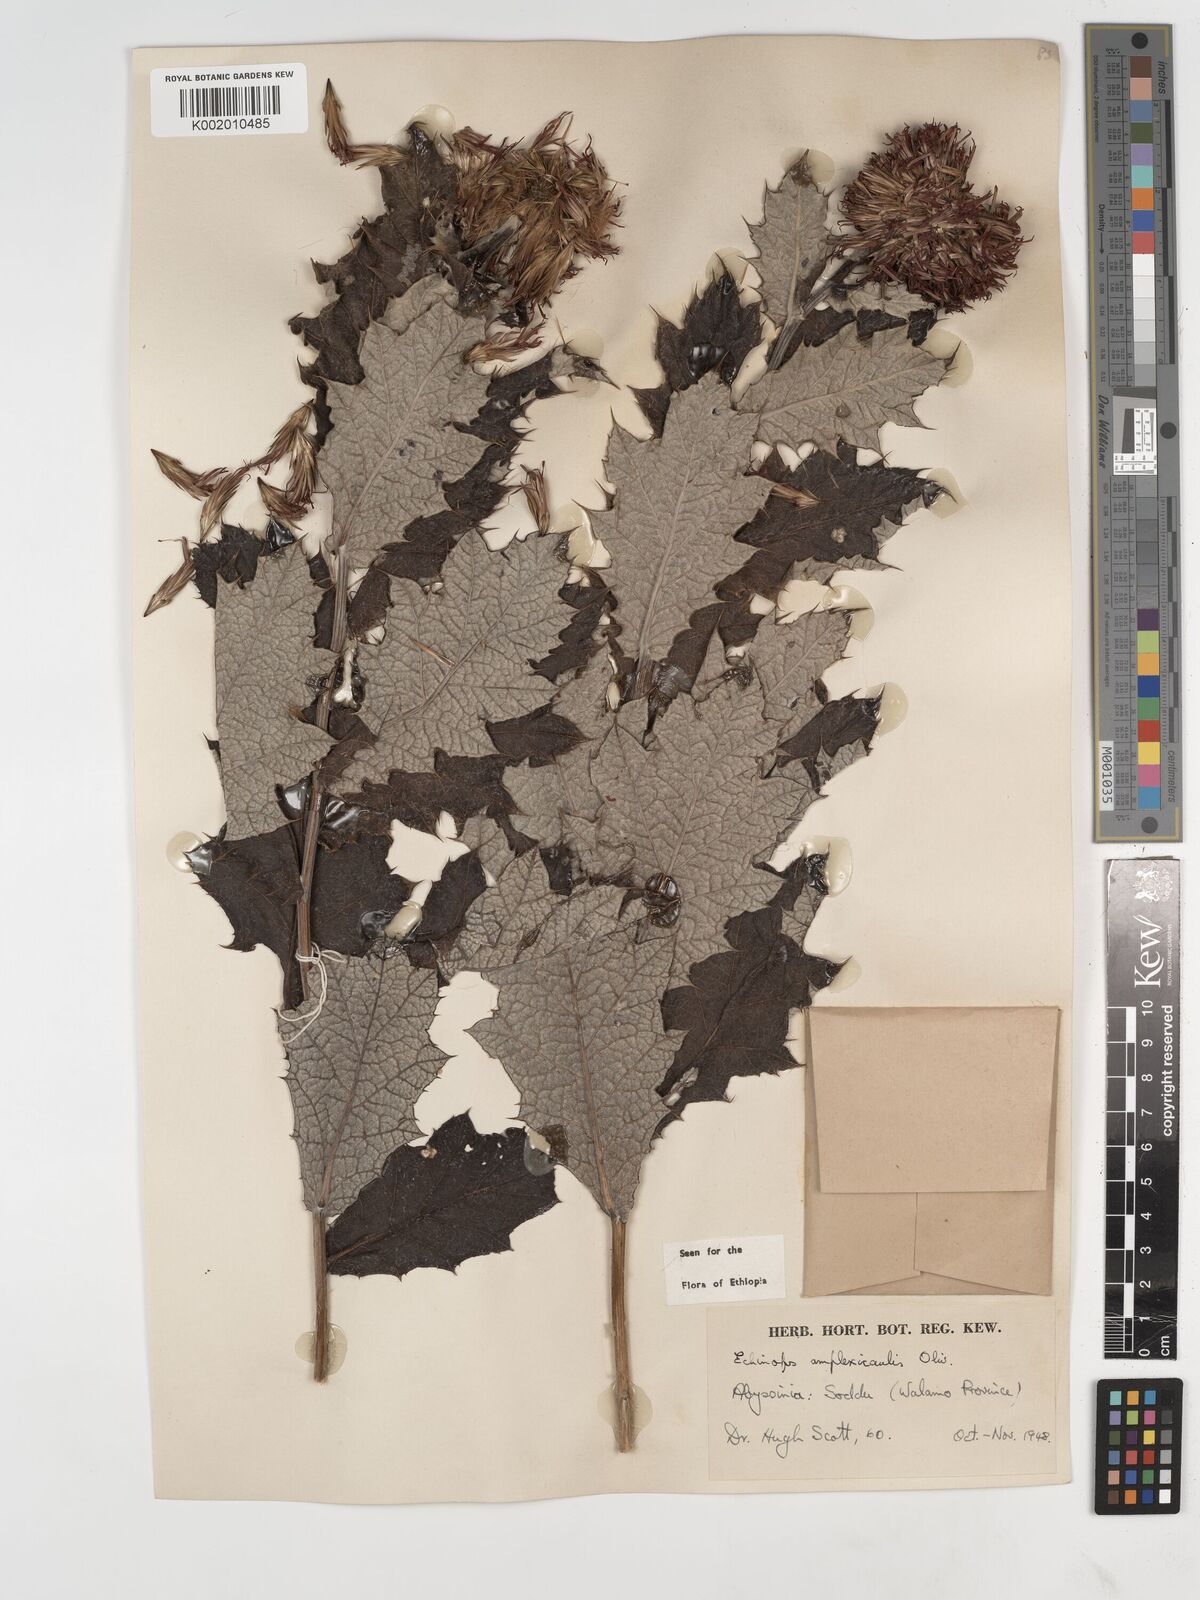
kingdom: Plantae
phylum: Tracheophyta
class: Magnoliopsida
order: Asterales
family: Asteraceae
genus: Echinops
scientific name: Echinops amplexicaulis
